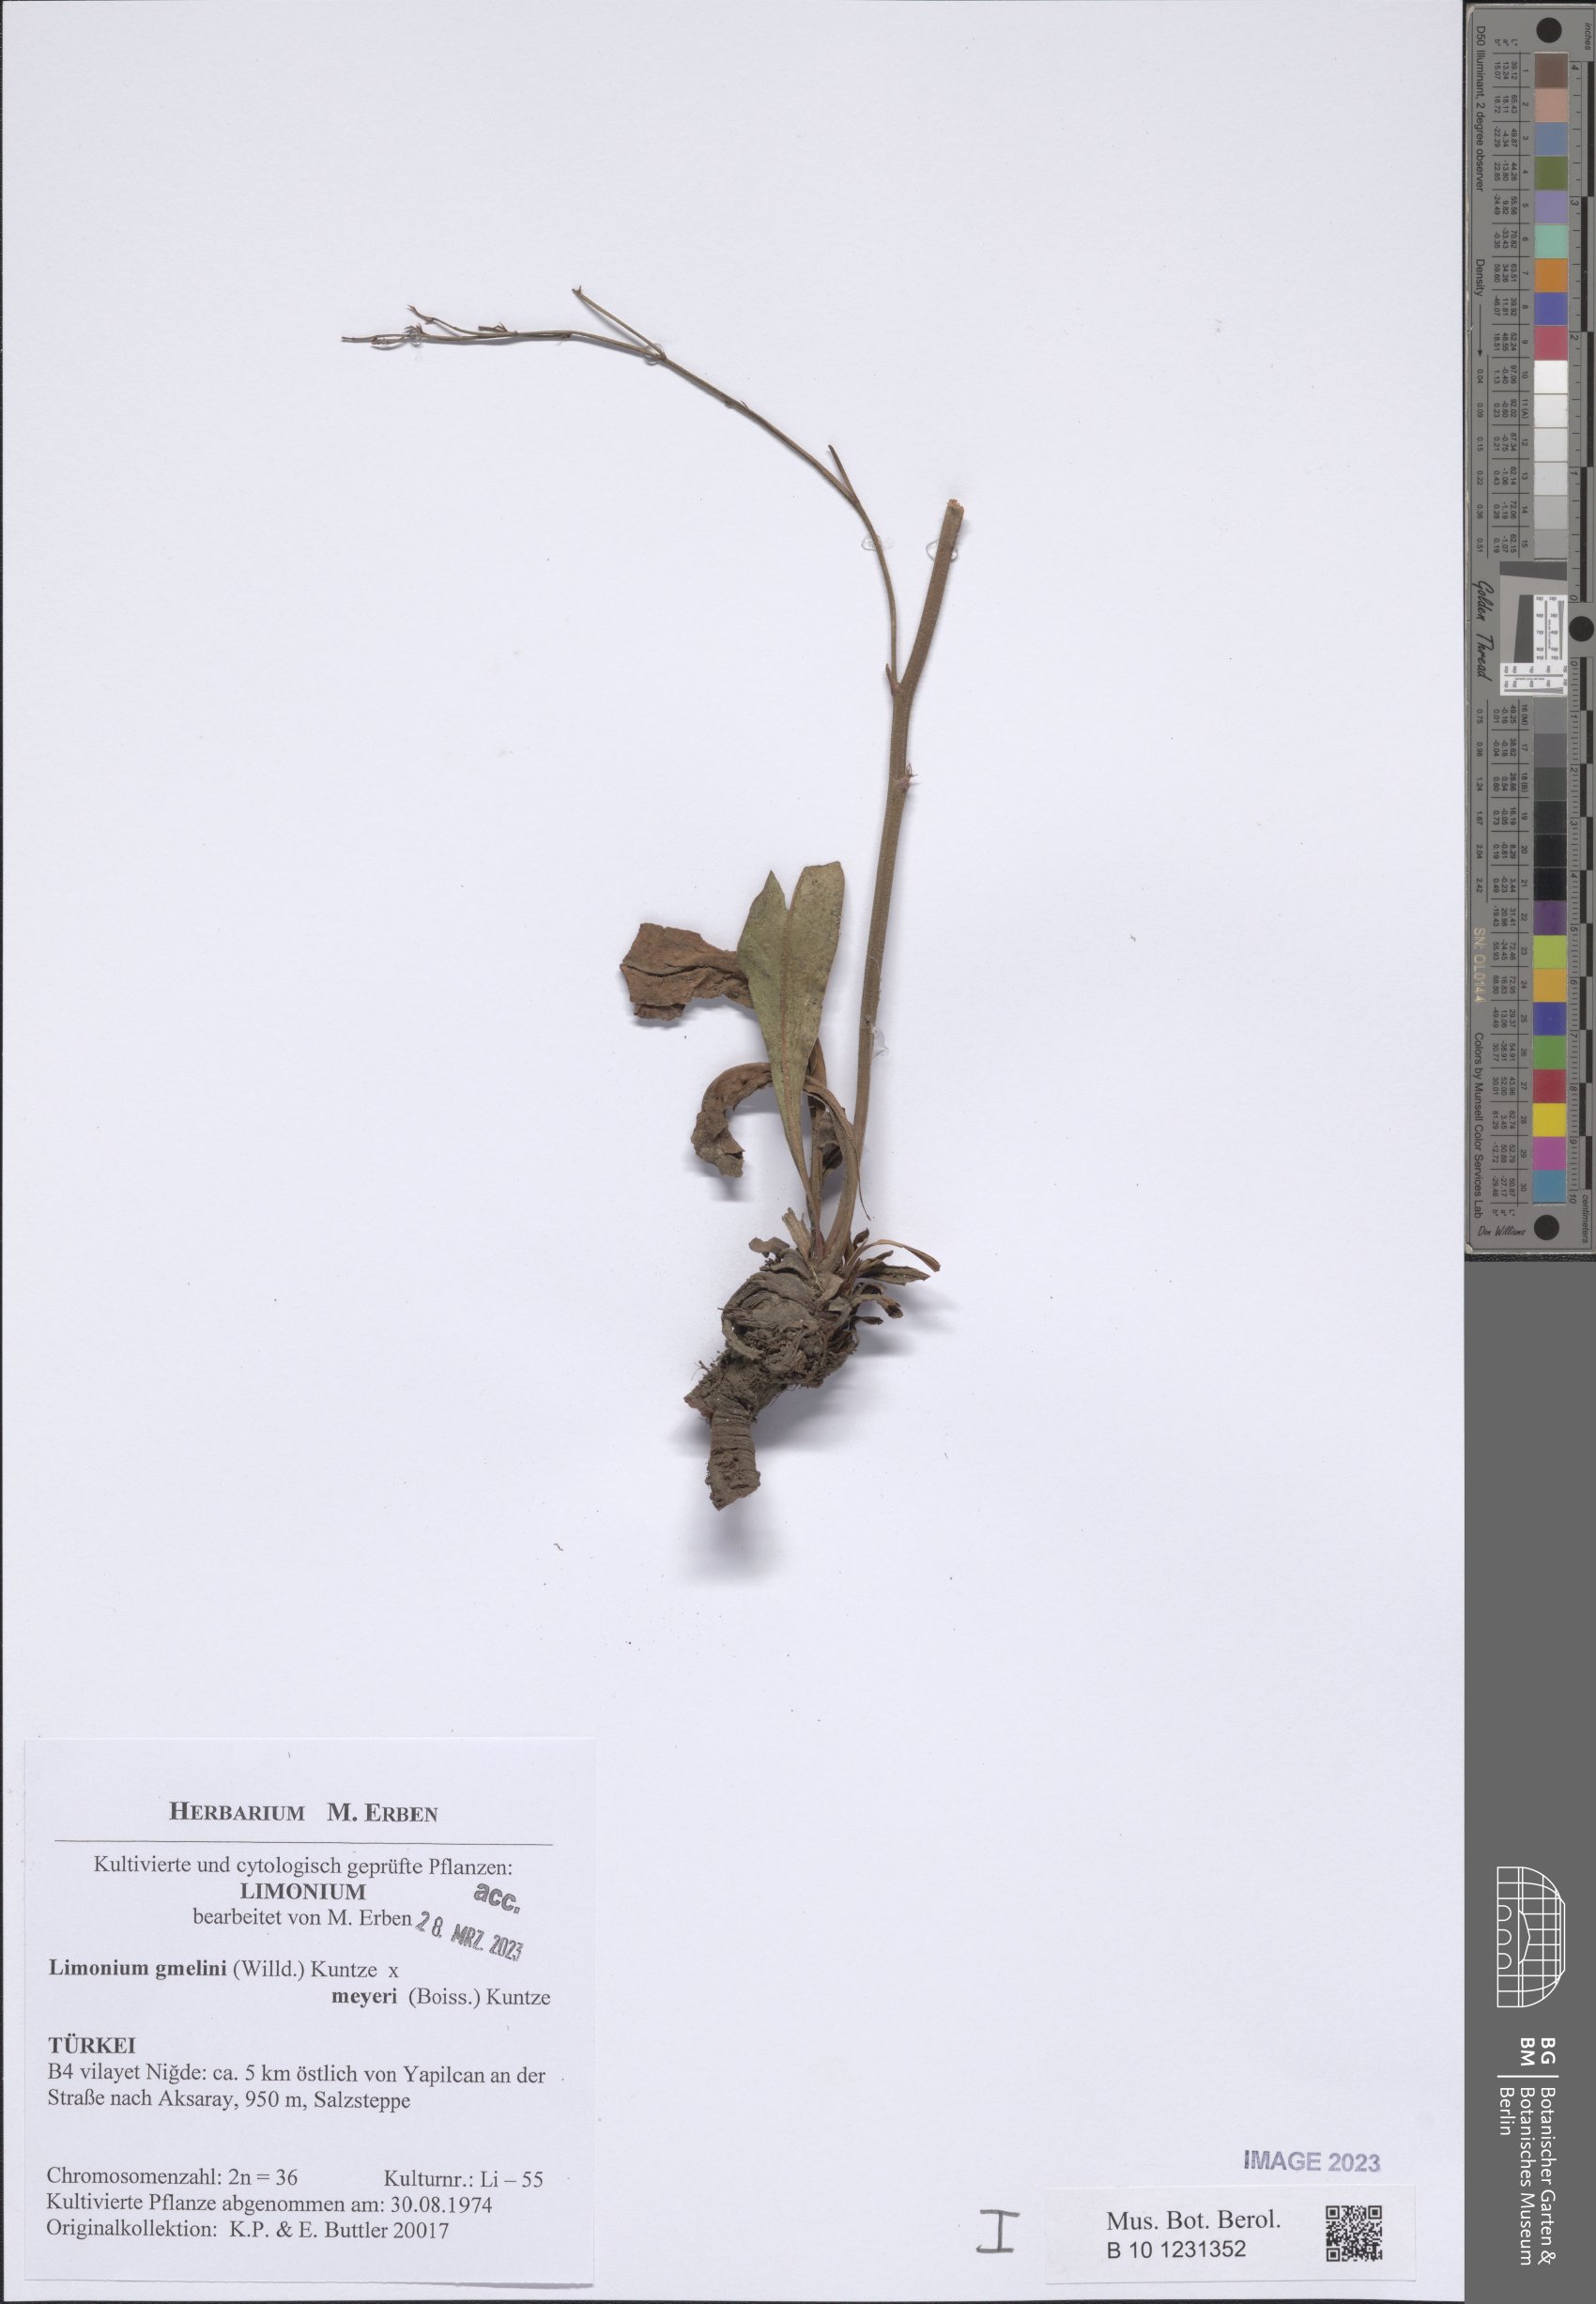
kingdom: Plantae
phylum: Tracheophyta
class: Magnoliopsida
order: Caryophyllales
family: Plumbaginaceae
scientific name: Plumbaginaceae
